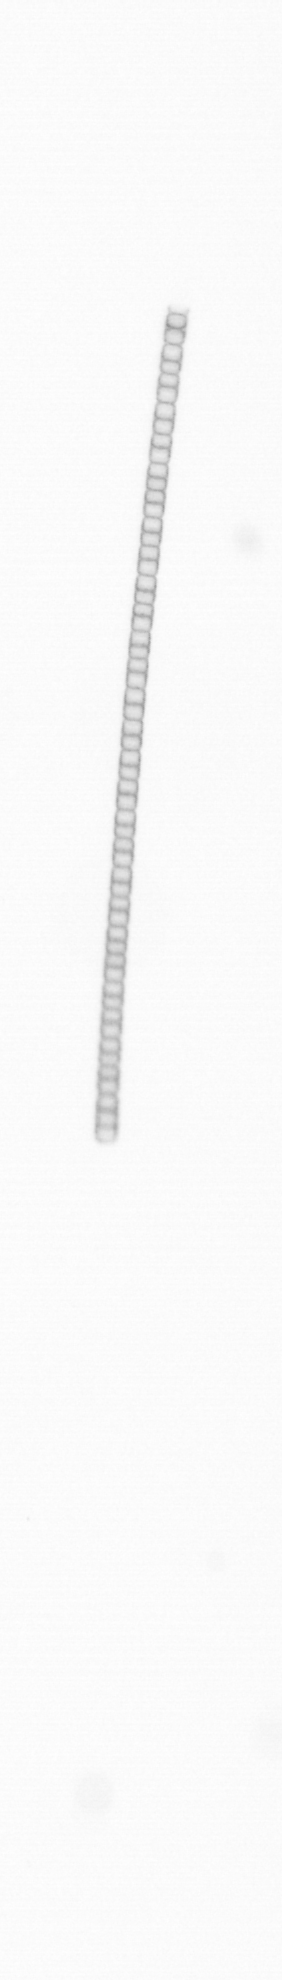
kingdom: Chromista
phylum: Ochrophyta
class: Bacillariophyceae
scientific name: Bacillariophyceae
